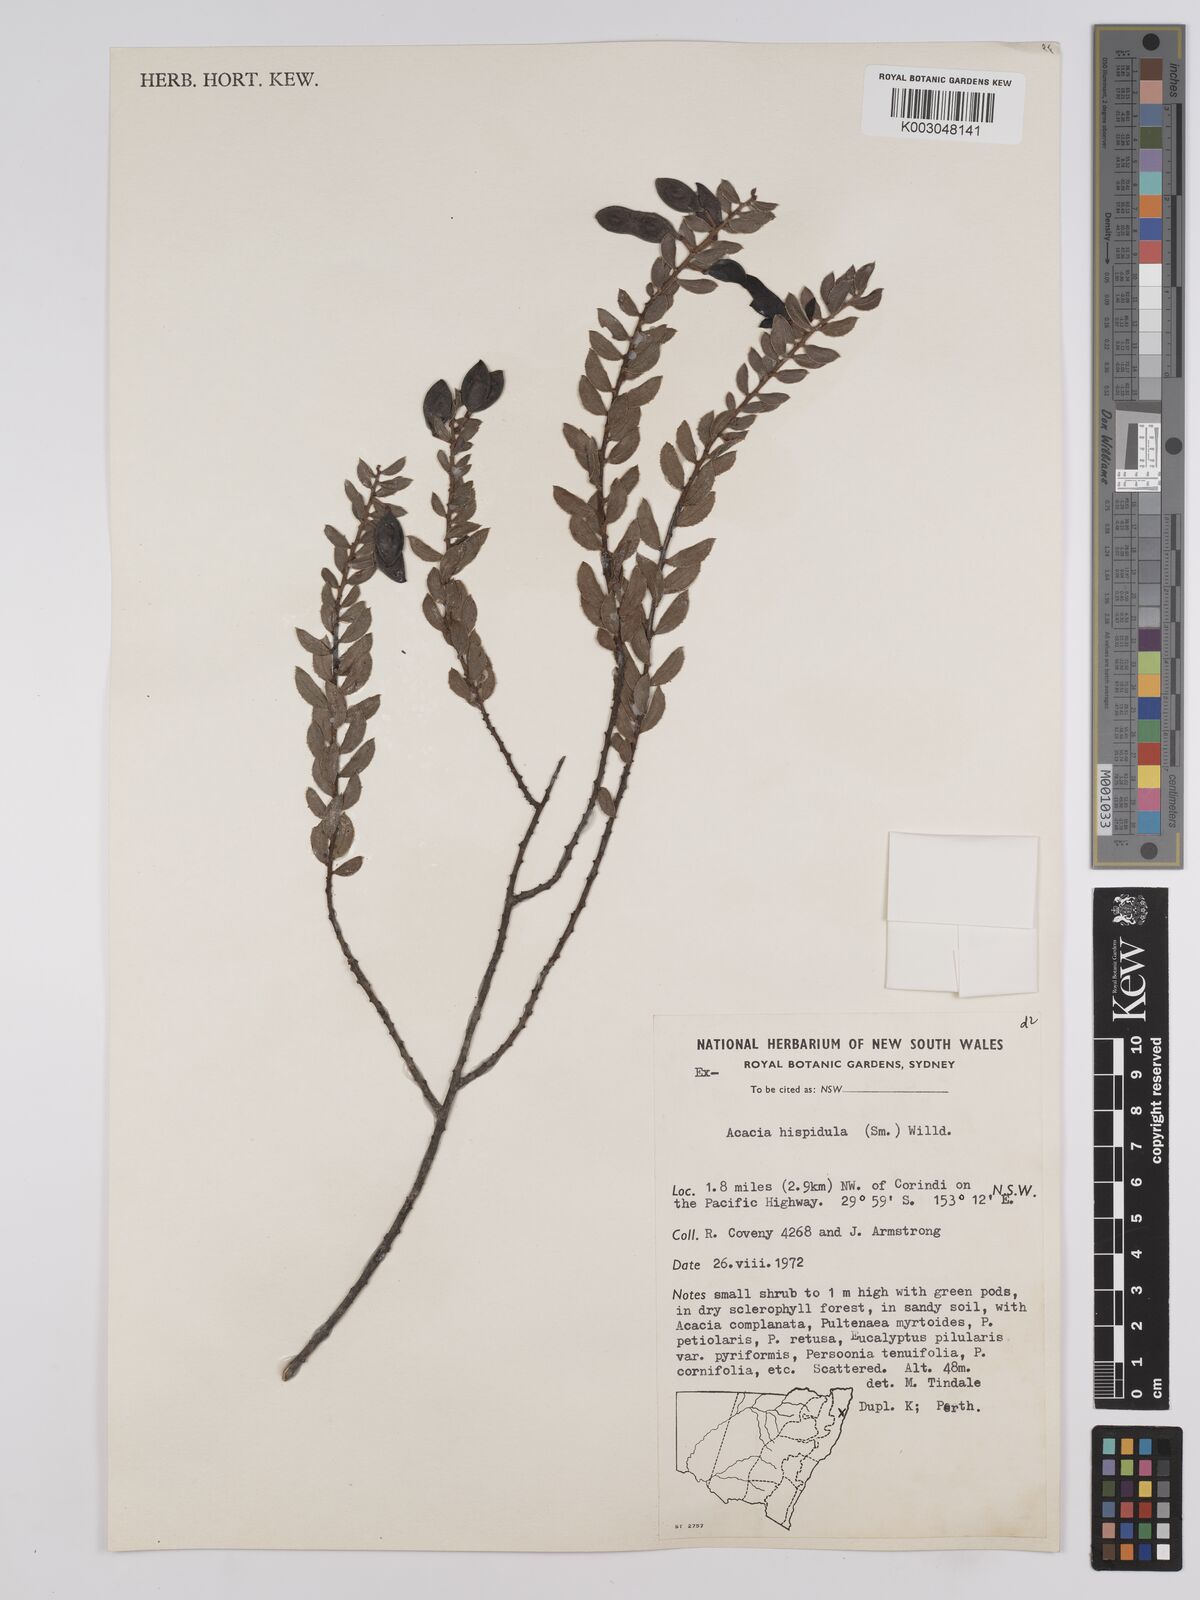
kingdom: Plantae
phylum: Tracheophyta
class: Magnoliopsida
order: Fabales
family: Fabaceae
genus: Acacia
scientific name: Acacia hispidula
